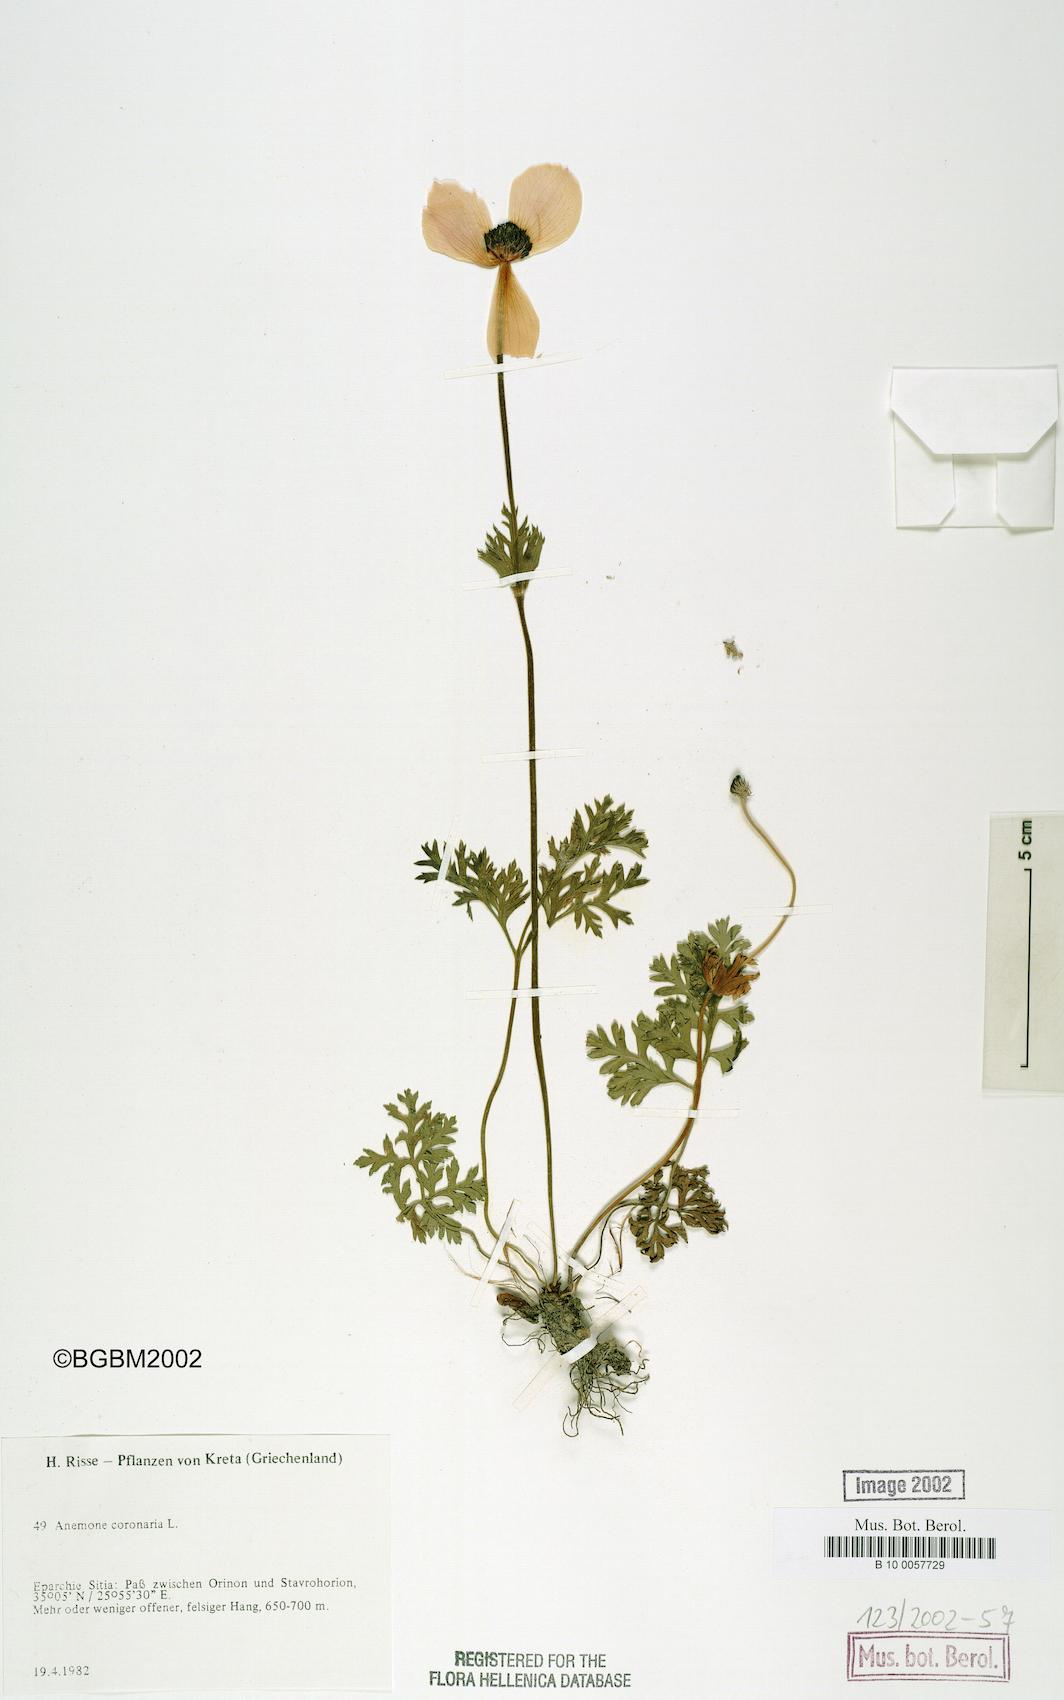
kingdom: Plantae
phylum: Tracheophyta
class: Magnoliopsida
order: Ranunculales
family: Ranunculaceae
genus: Anemone
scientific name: Anemone coronaria
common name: Poppy anemone
